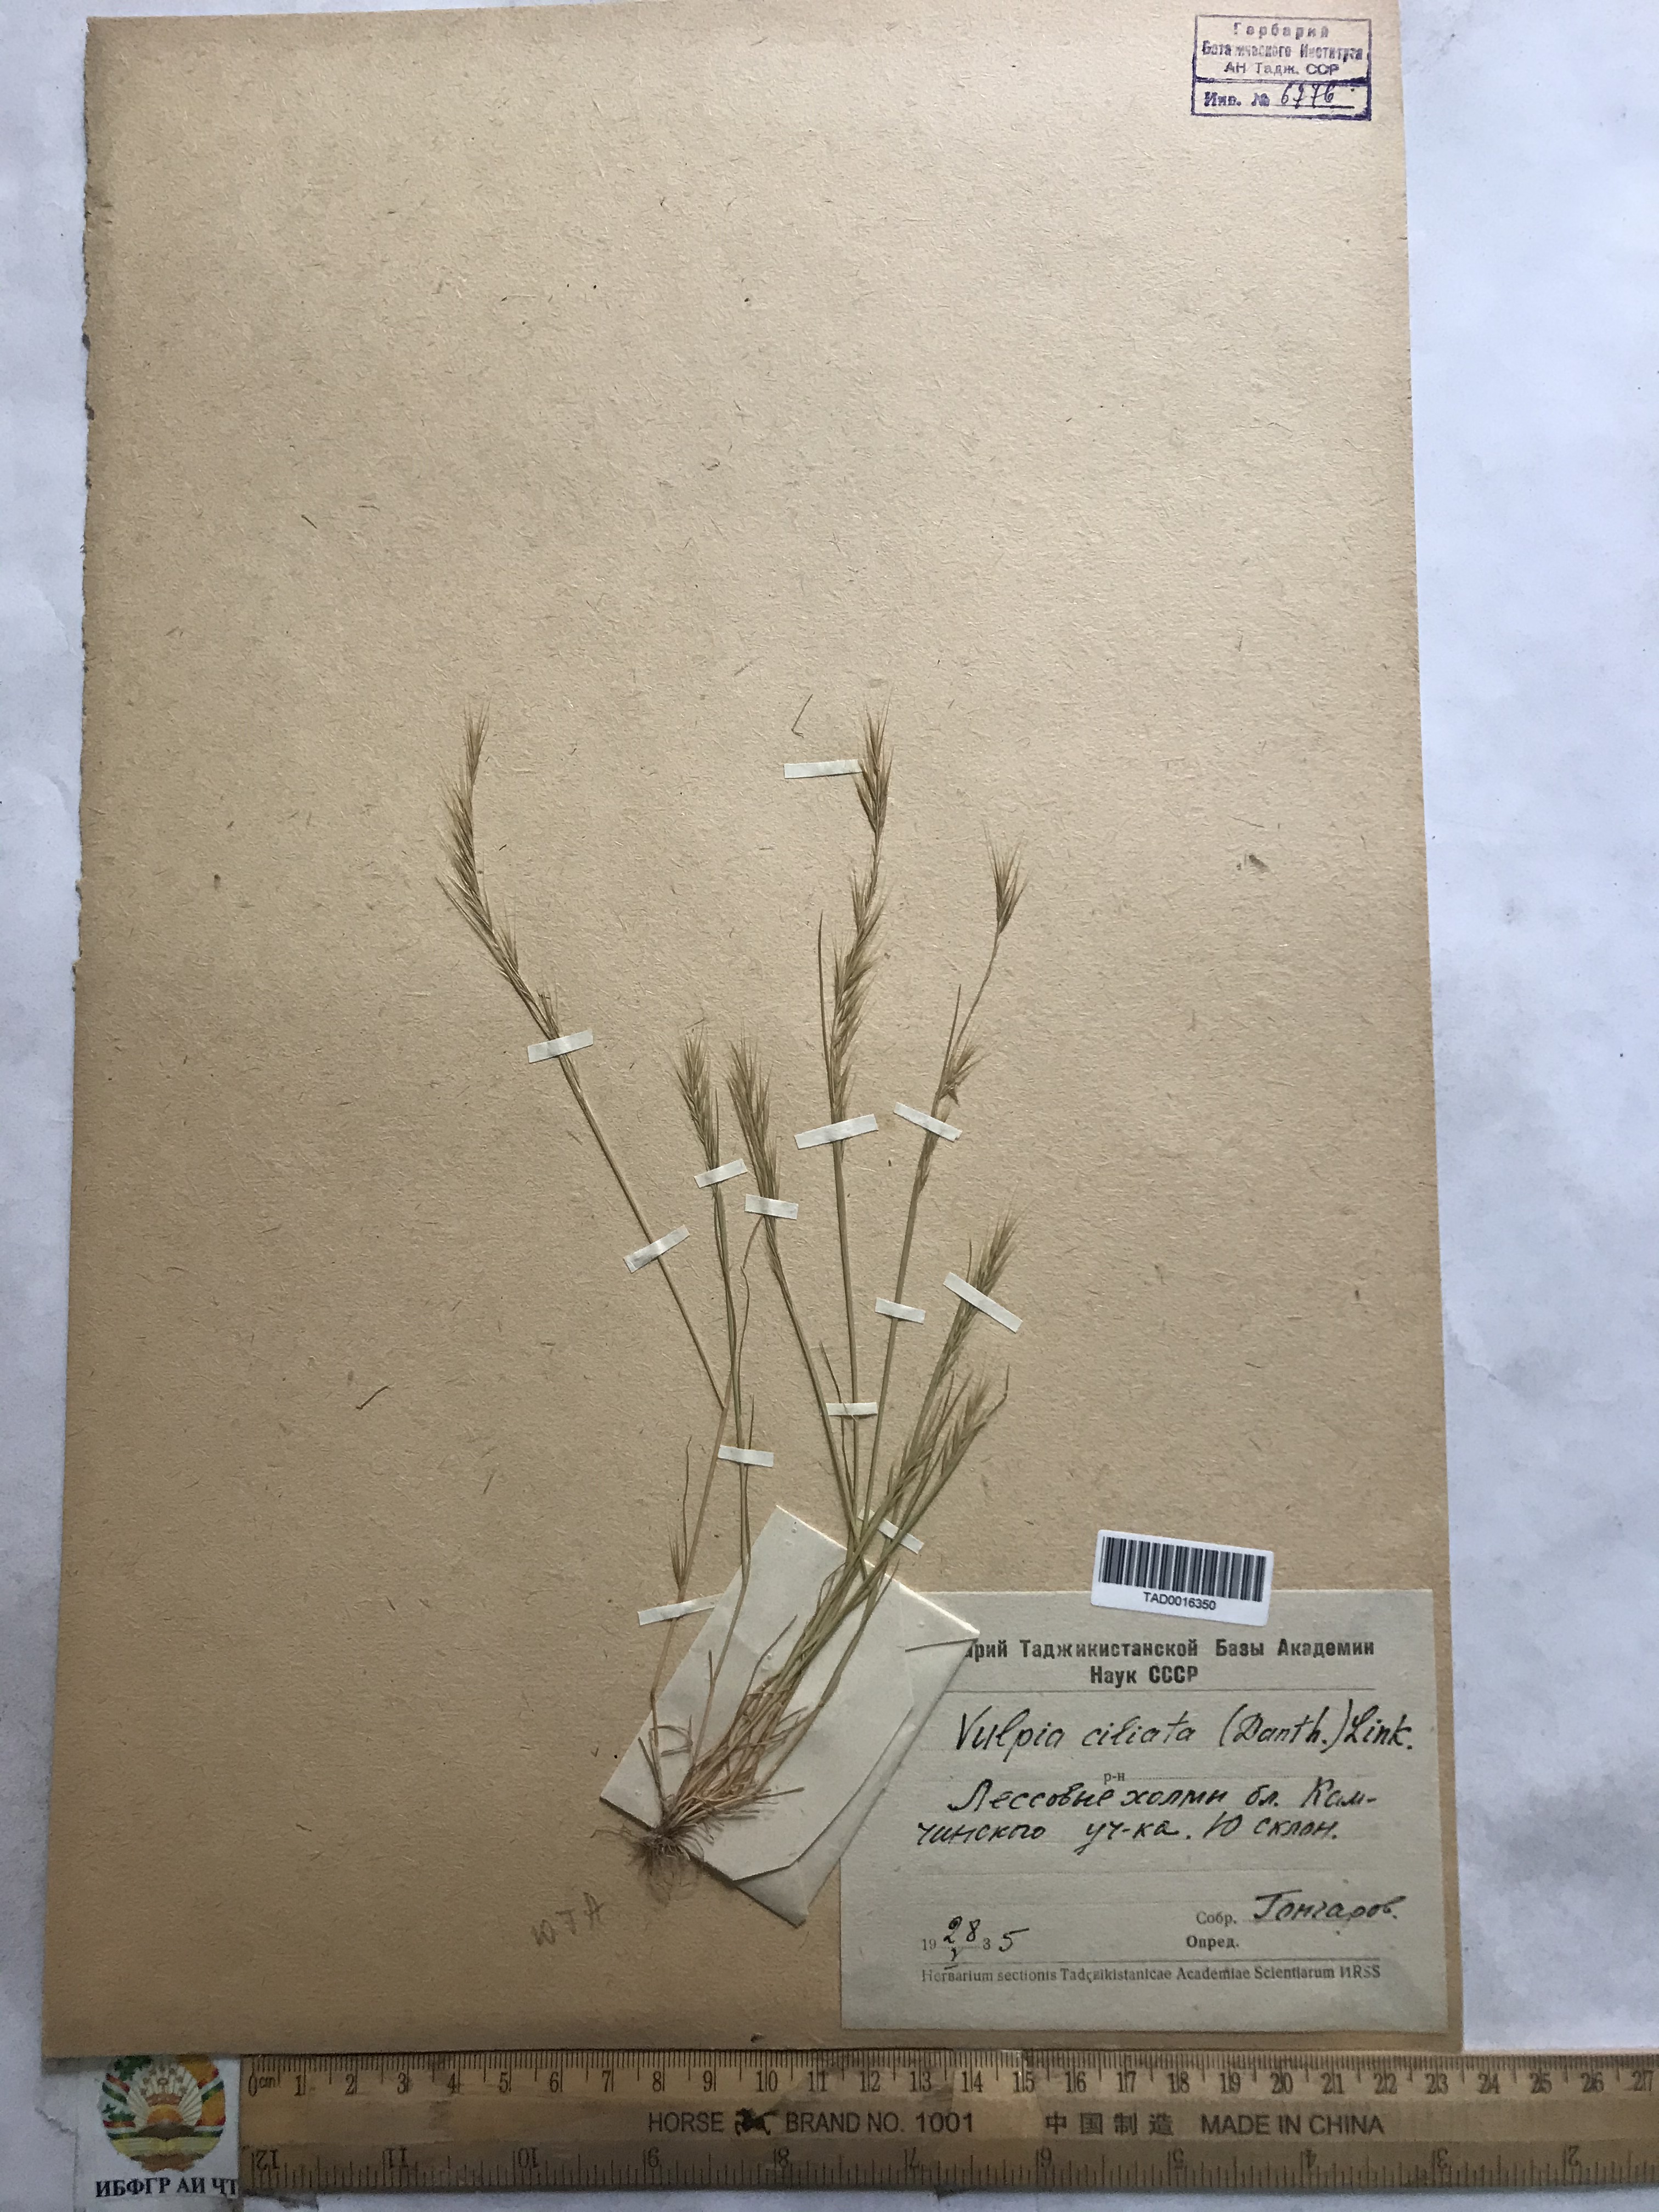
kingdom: Plantae
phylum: Tracheophyta
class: Liliopsida
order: Poales
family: Poaceae
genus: Festuca
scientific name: Festuca ambigua
